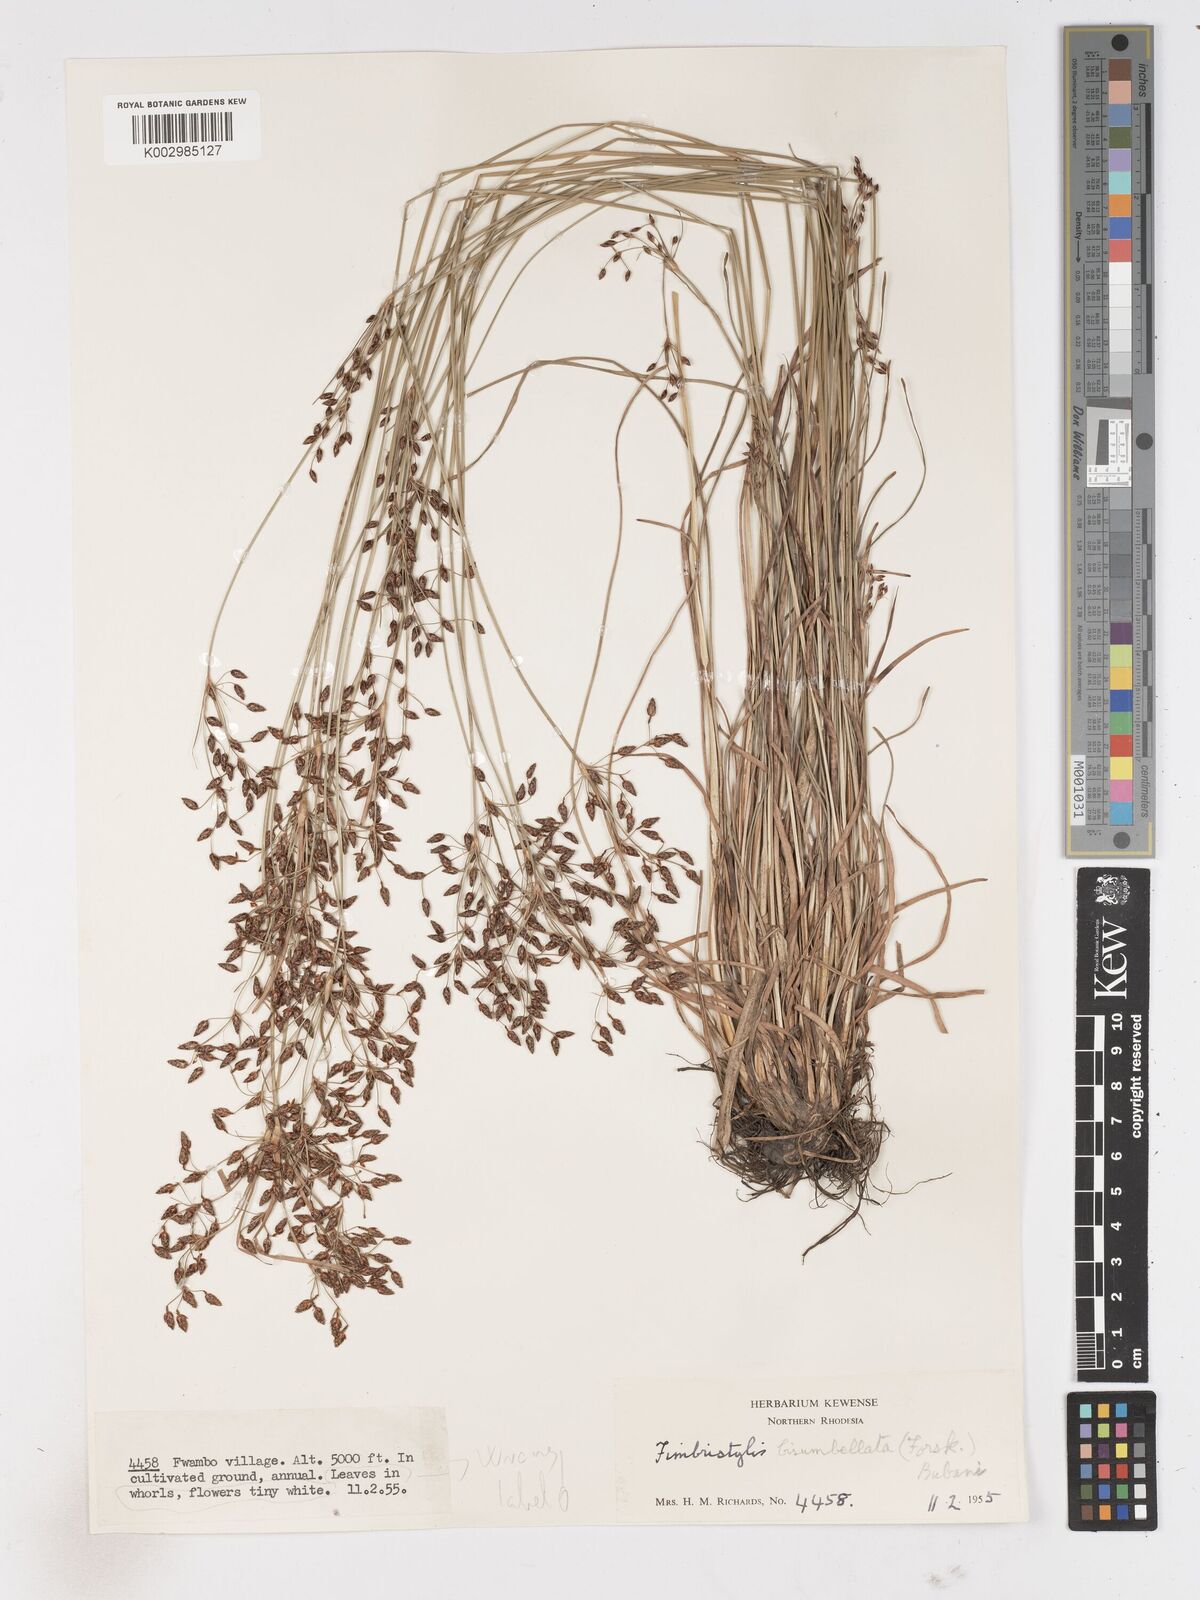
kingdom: Plantae
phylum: Tracheophyta
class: Liliopsida
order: Poales
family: Cyperaceae
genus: Fimbristylis
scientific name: Fimbristylis dichotoma
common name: Forked fimbry
